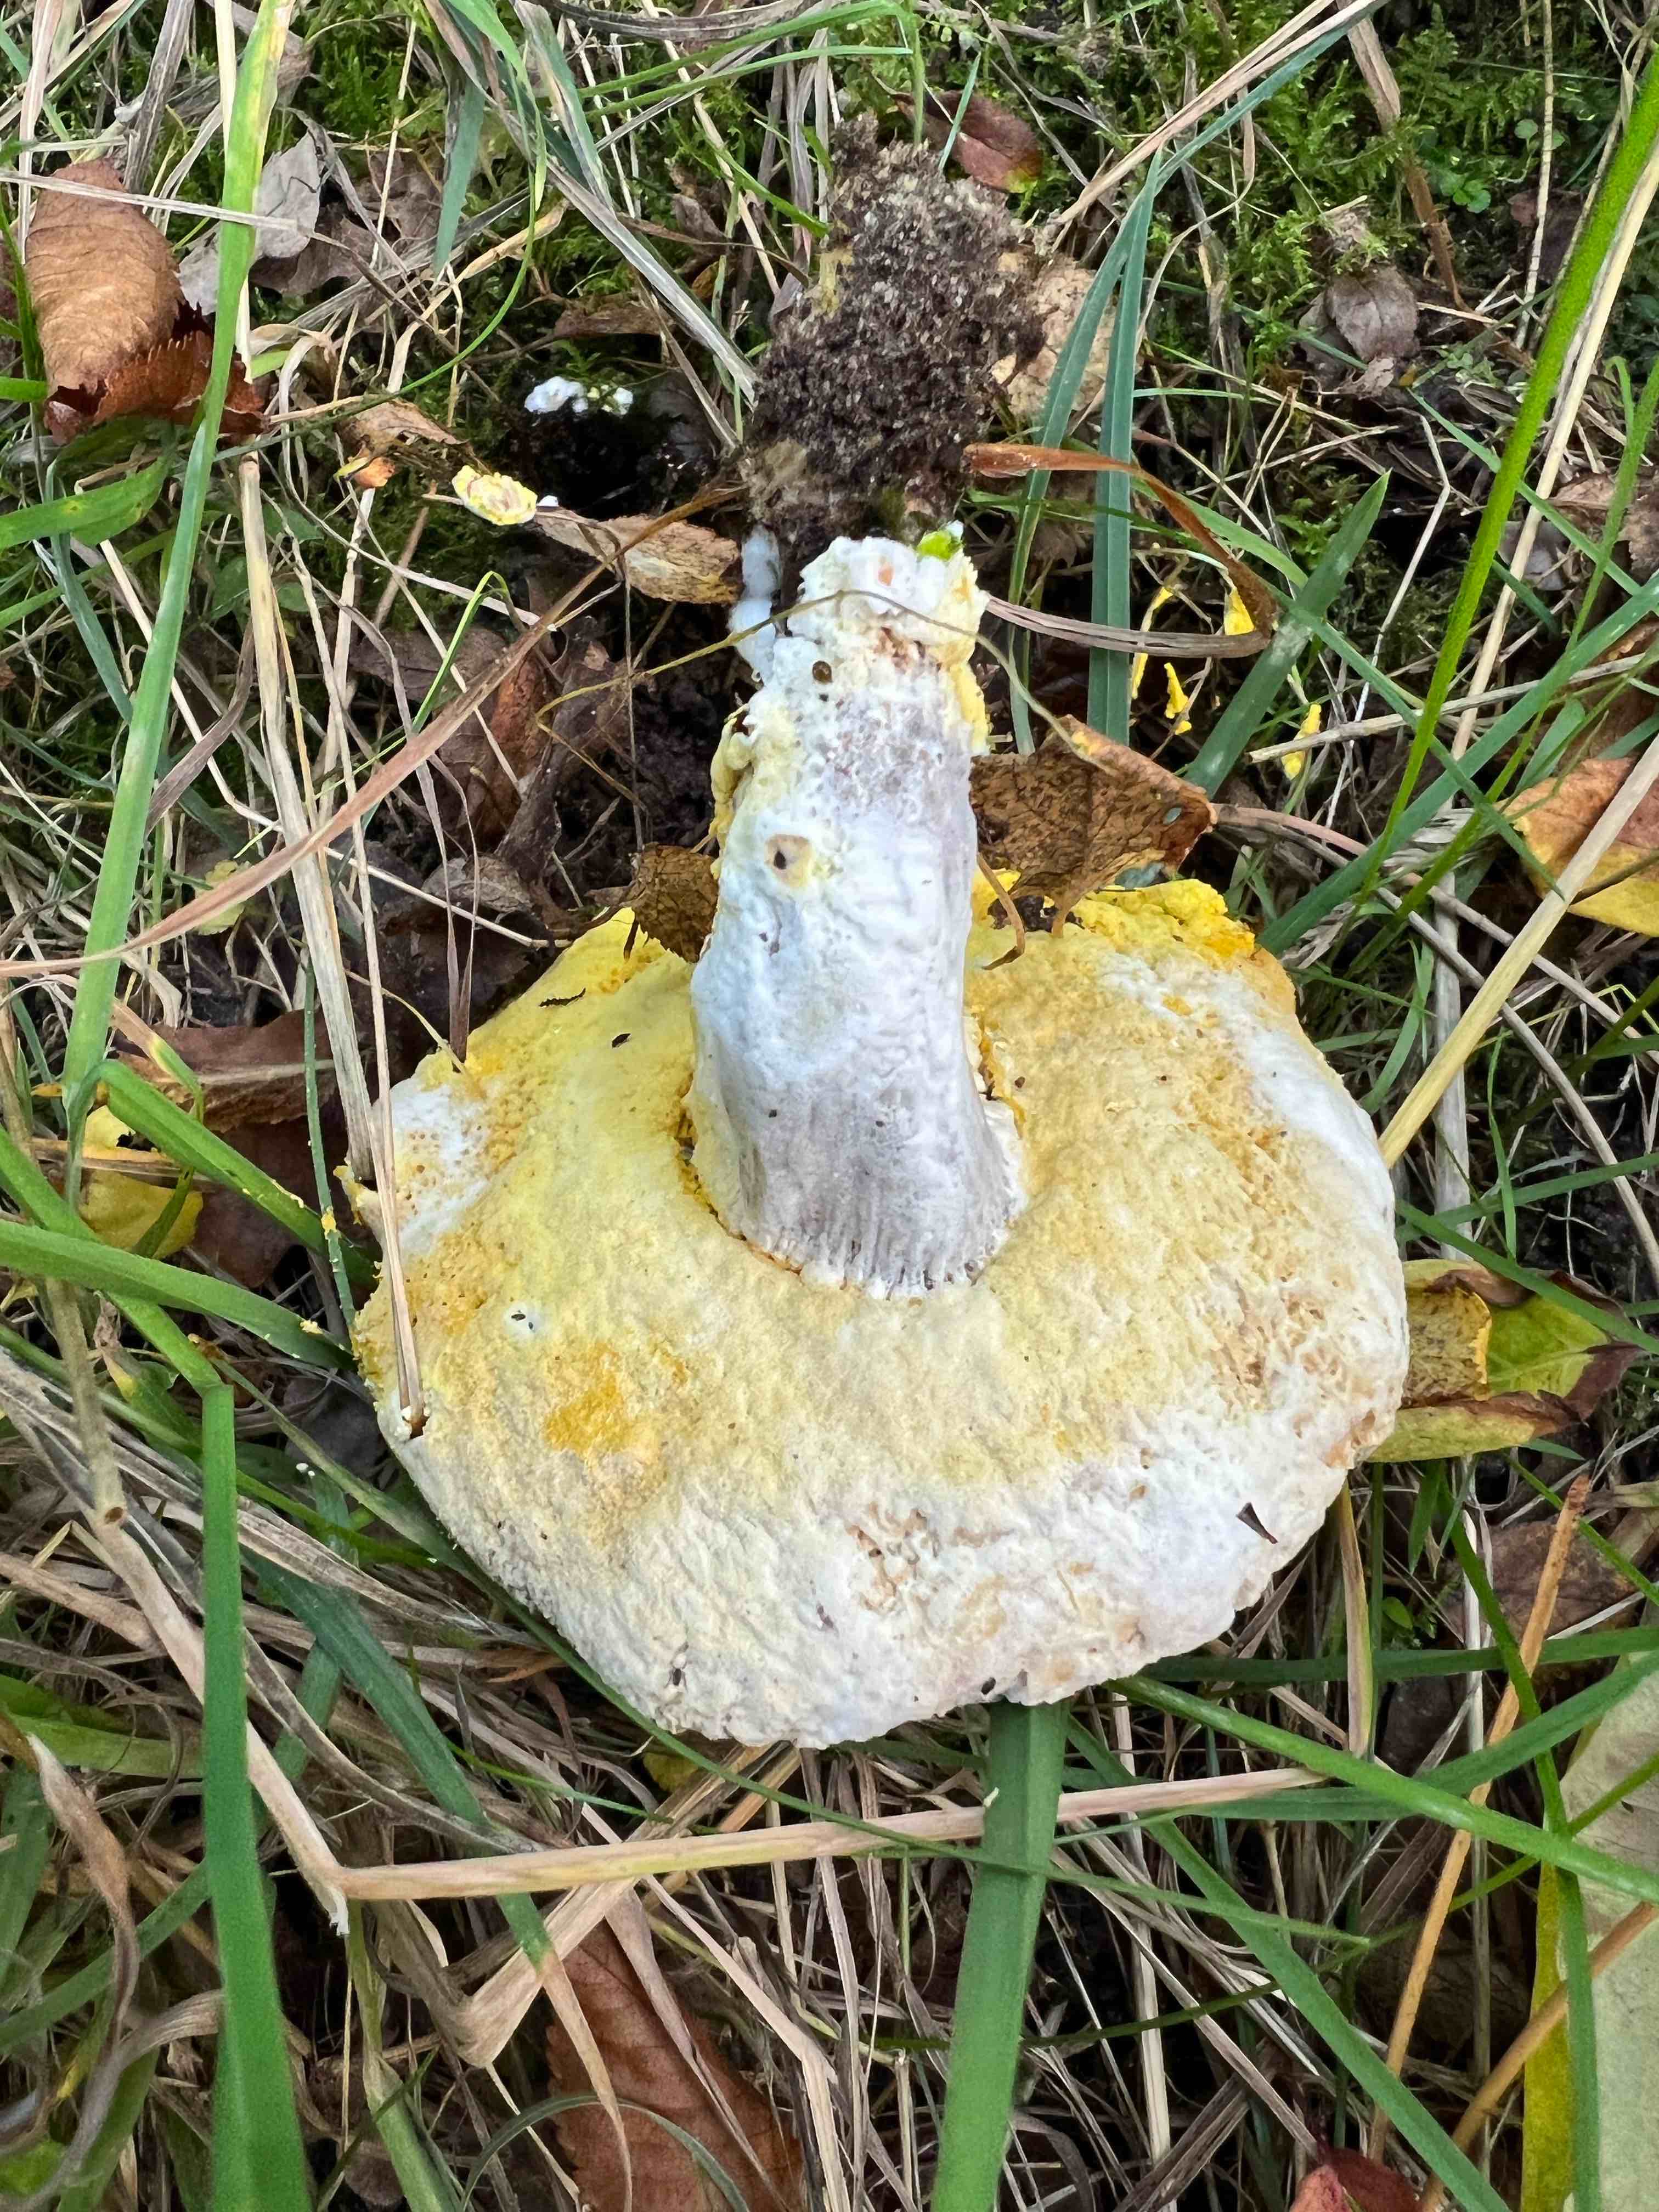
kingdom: Fungi
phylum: Ascomycota
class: Sordariomycetes
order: Hypocreales
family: Hypocreaceae
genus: Hypomyces
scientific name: Hypomyces
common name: snylteskorpe
